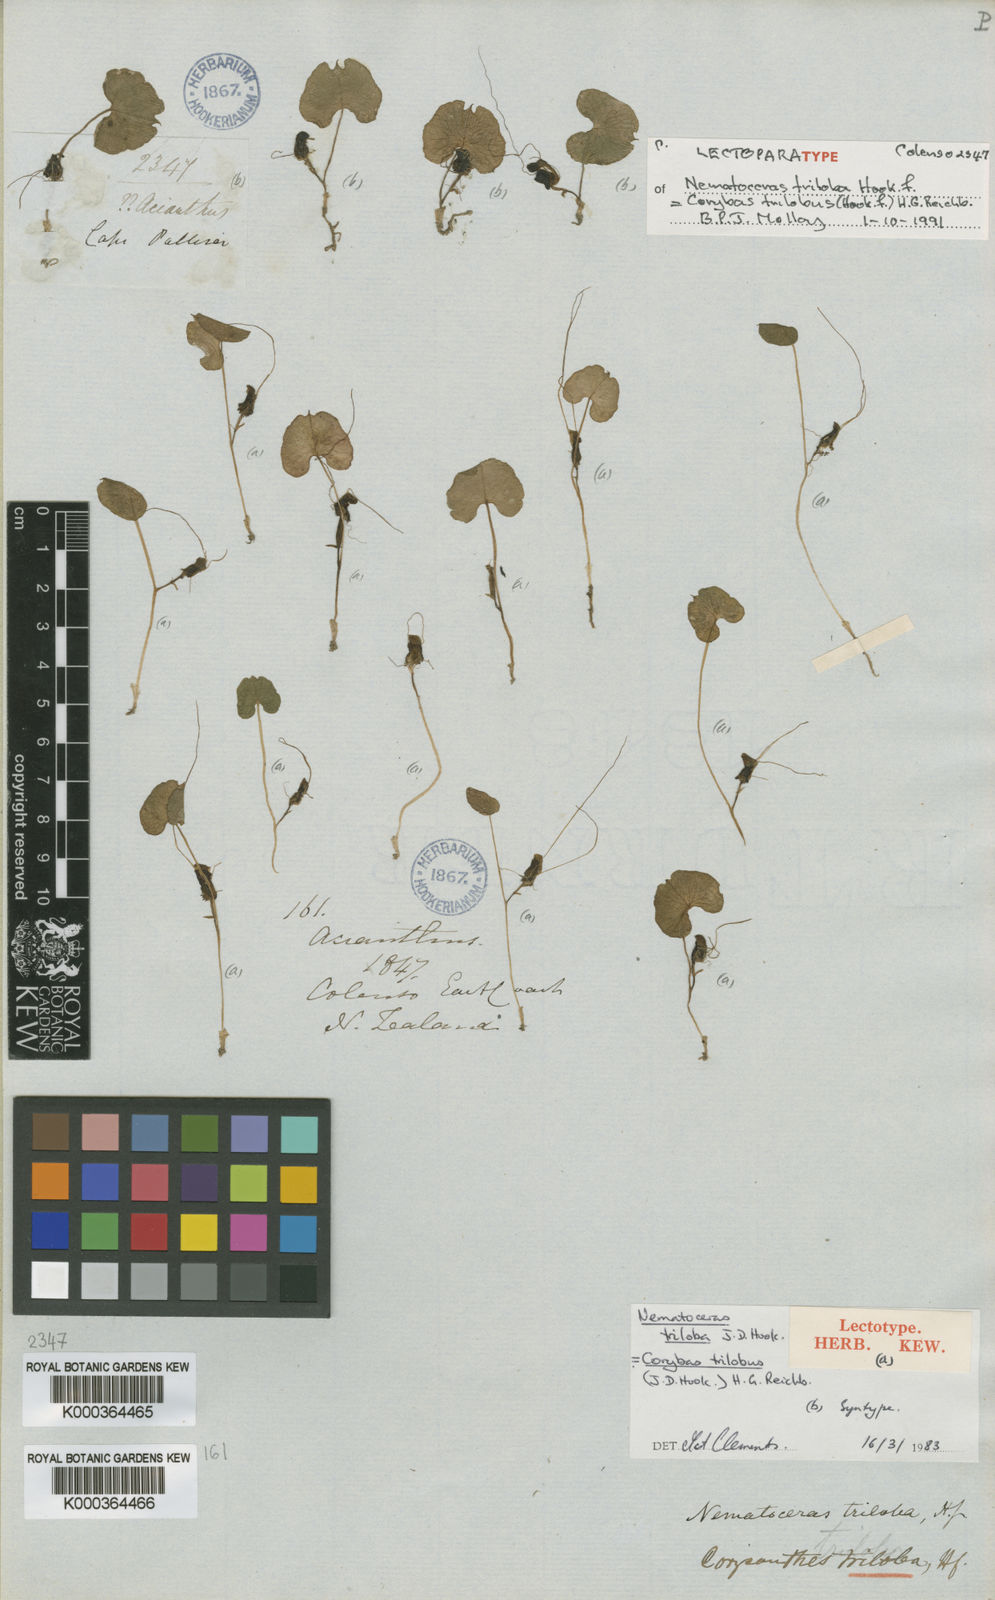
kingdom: Plantae
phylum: Tracheophyta
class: Liliopsida
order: Asparagales
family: Orchidaceae
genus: Corybas
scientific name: Corybas trilobus
